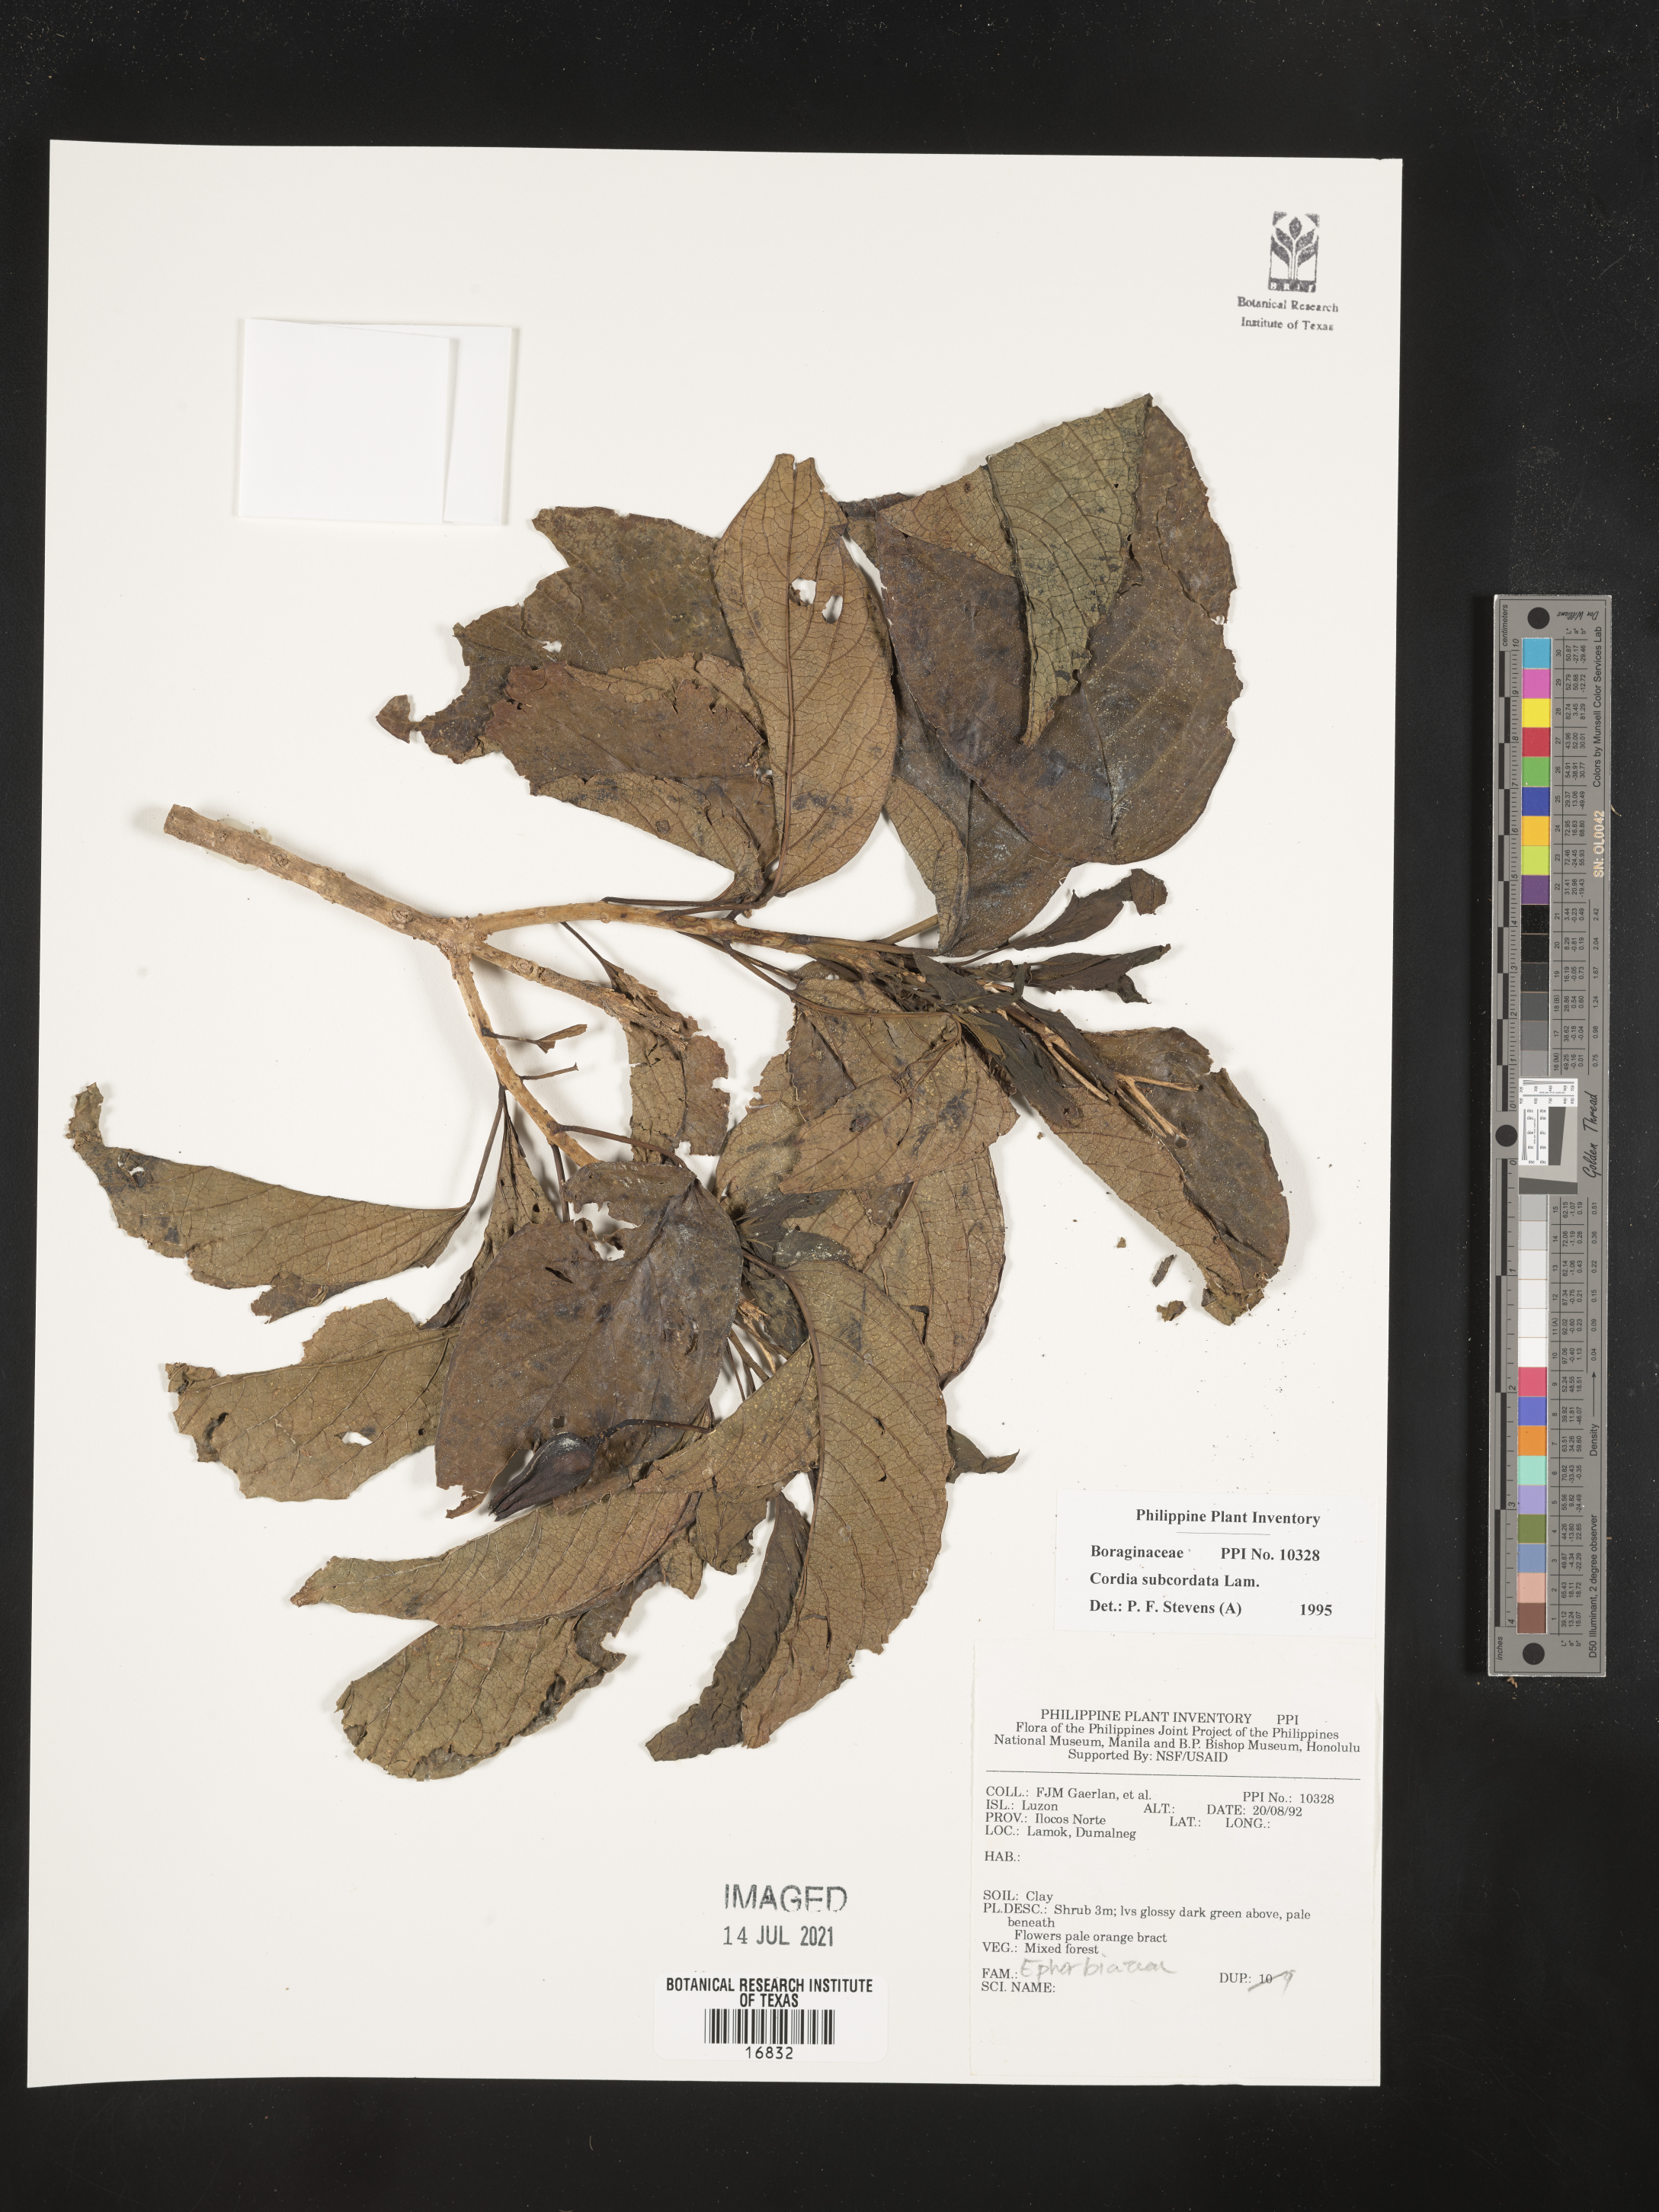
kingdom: Plantae
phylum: Tracheophyta
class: Magnoliopsida
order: Boraginales
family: Cordiaceae
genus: Cordia
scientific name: Cordia subcordata
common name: Mareer
